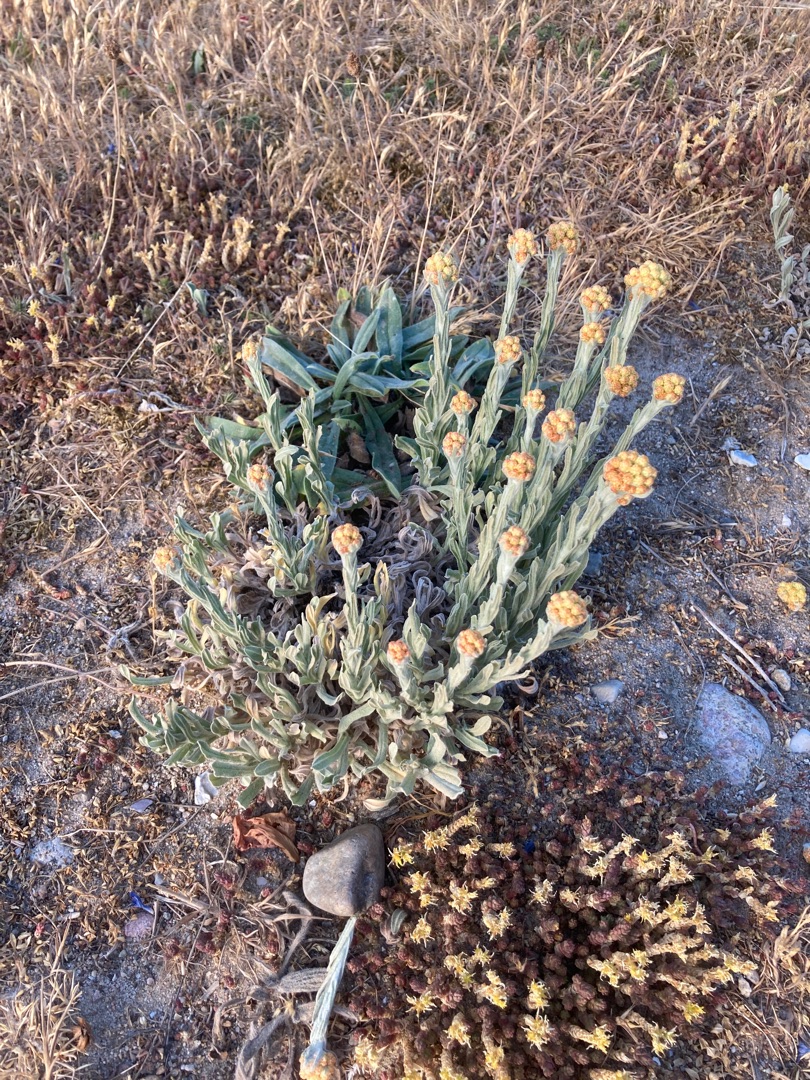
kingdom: Plantae
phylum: Tracheophyta
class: Magnoliopsida
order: Asterales
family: Asteraceae
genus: Helichrysum
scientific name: Helichrysum arenarium
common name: Gul evighedsblomst
